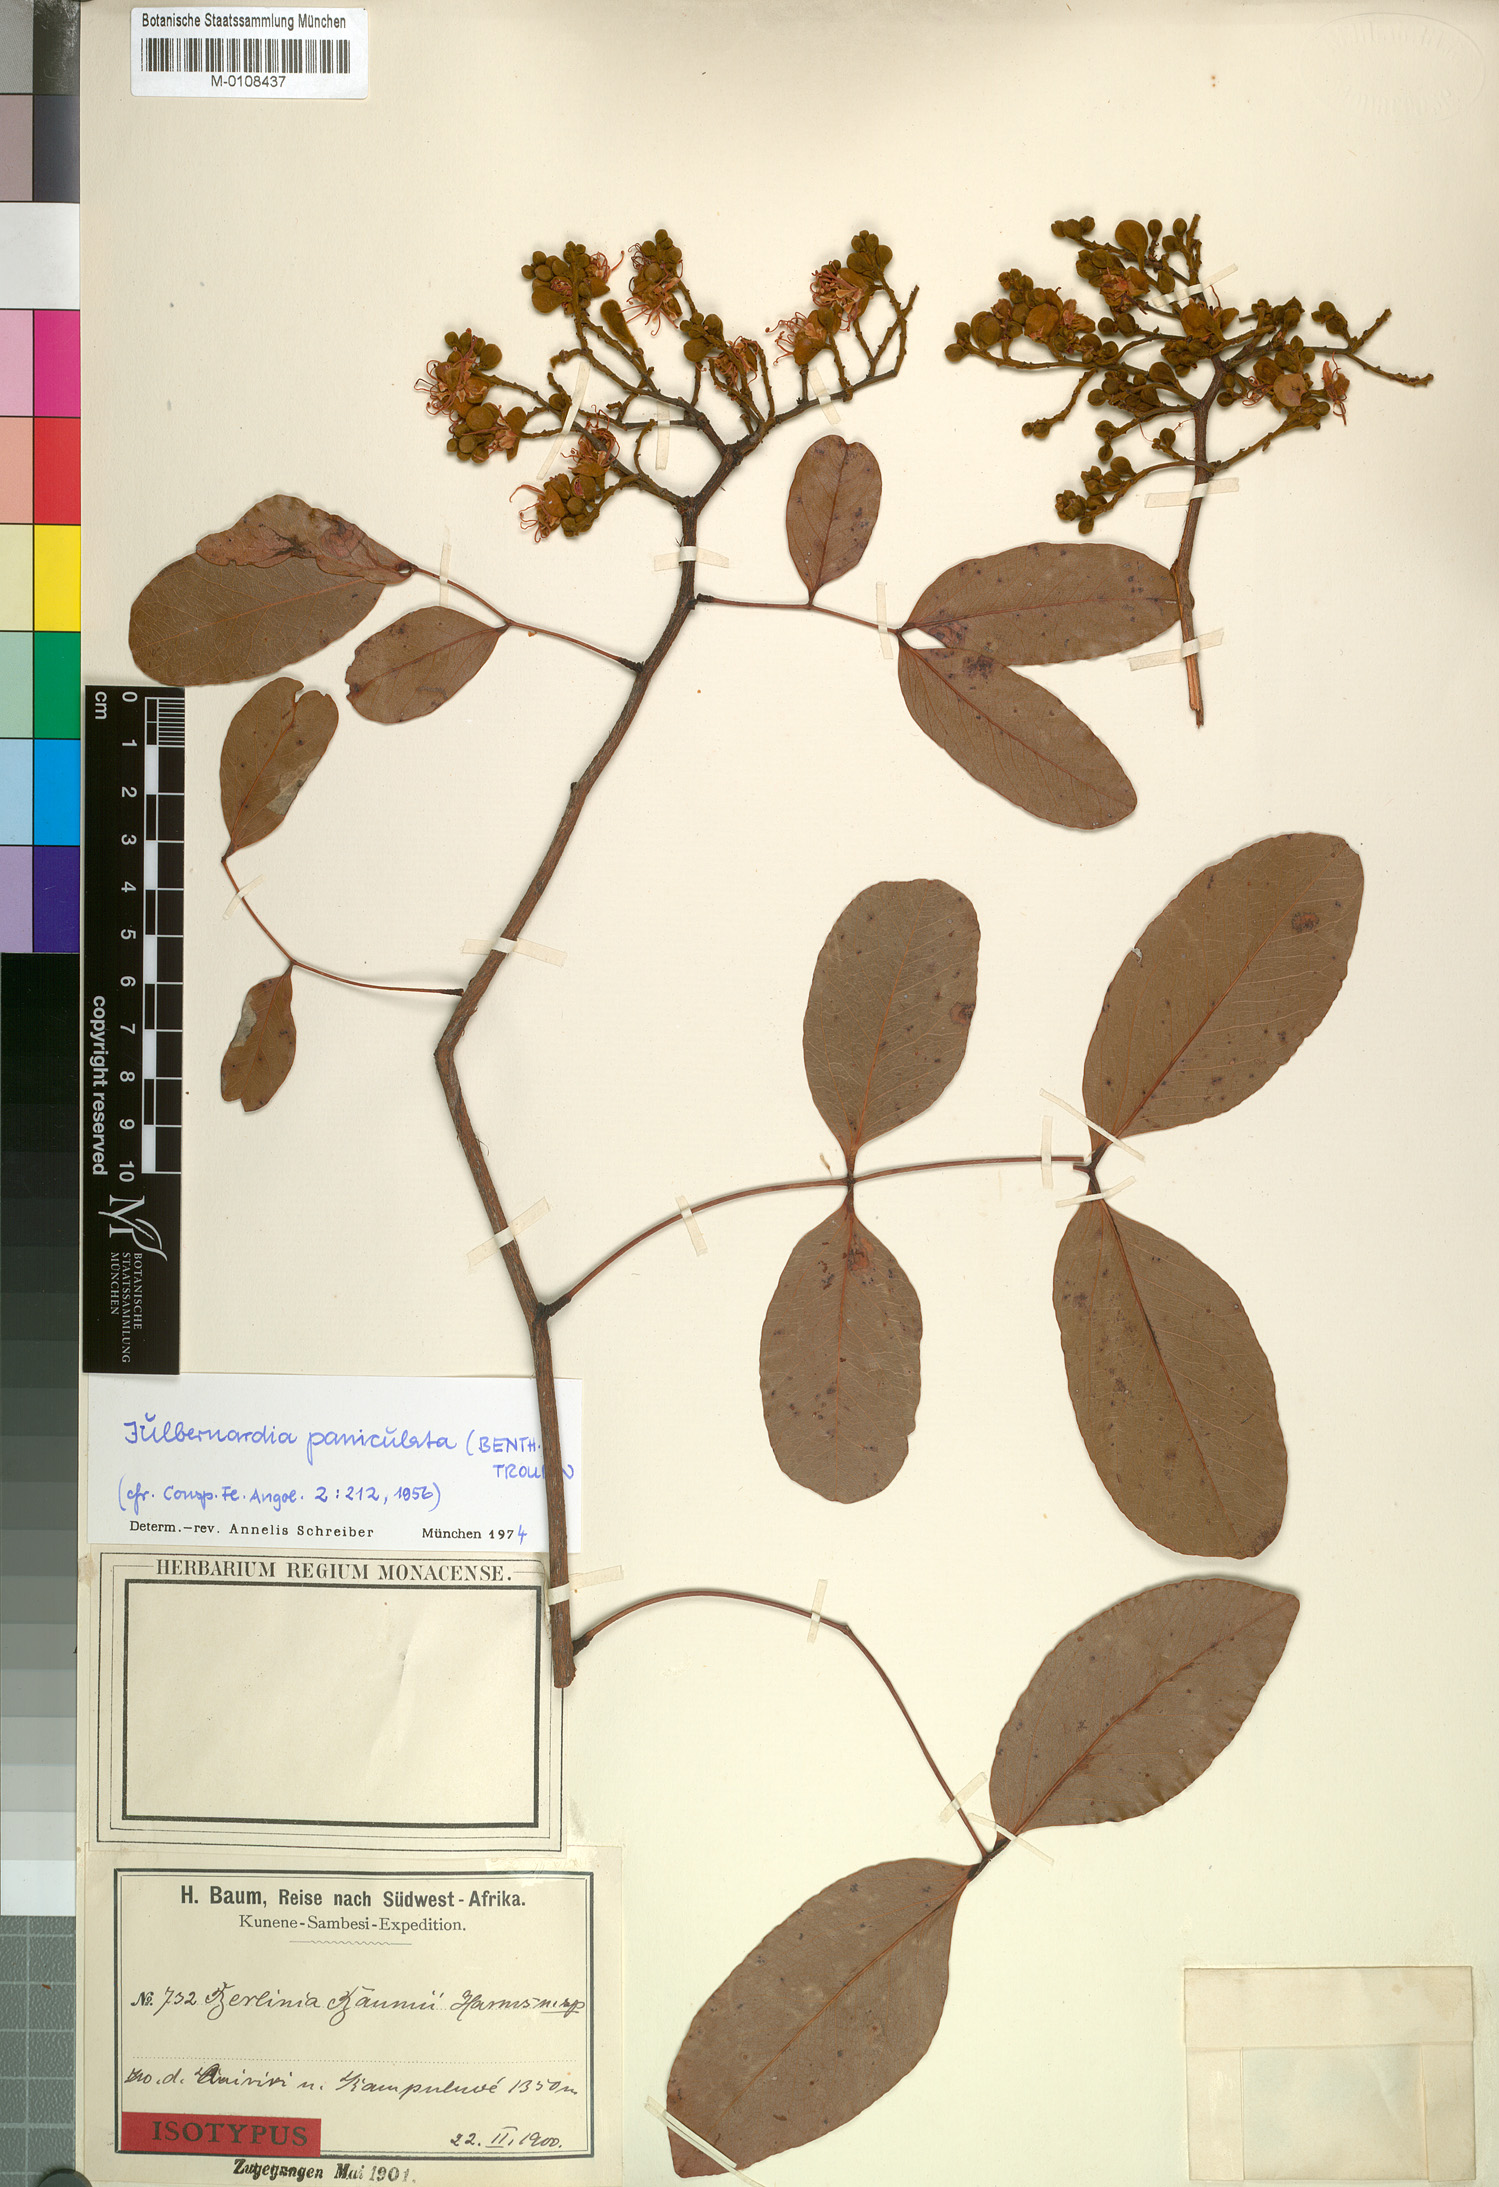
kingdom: Plantae
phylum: Tracheophyta
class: Magnoliopsida
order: Fabales
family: Fabaceae
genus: Julbernardia
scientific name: Julbernardia paniculata
